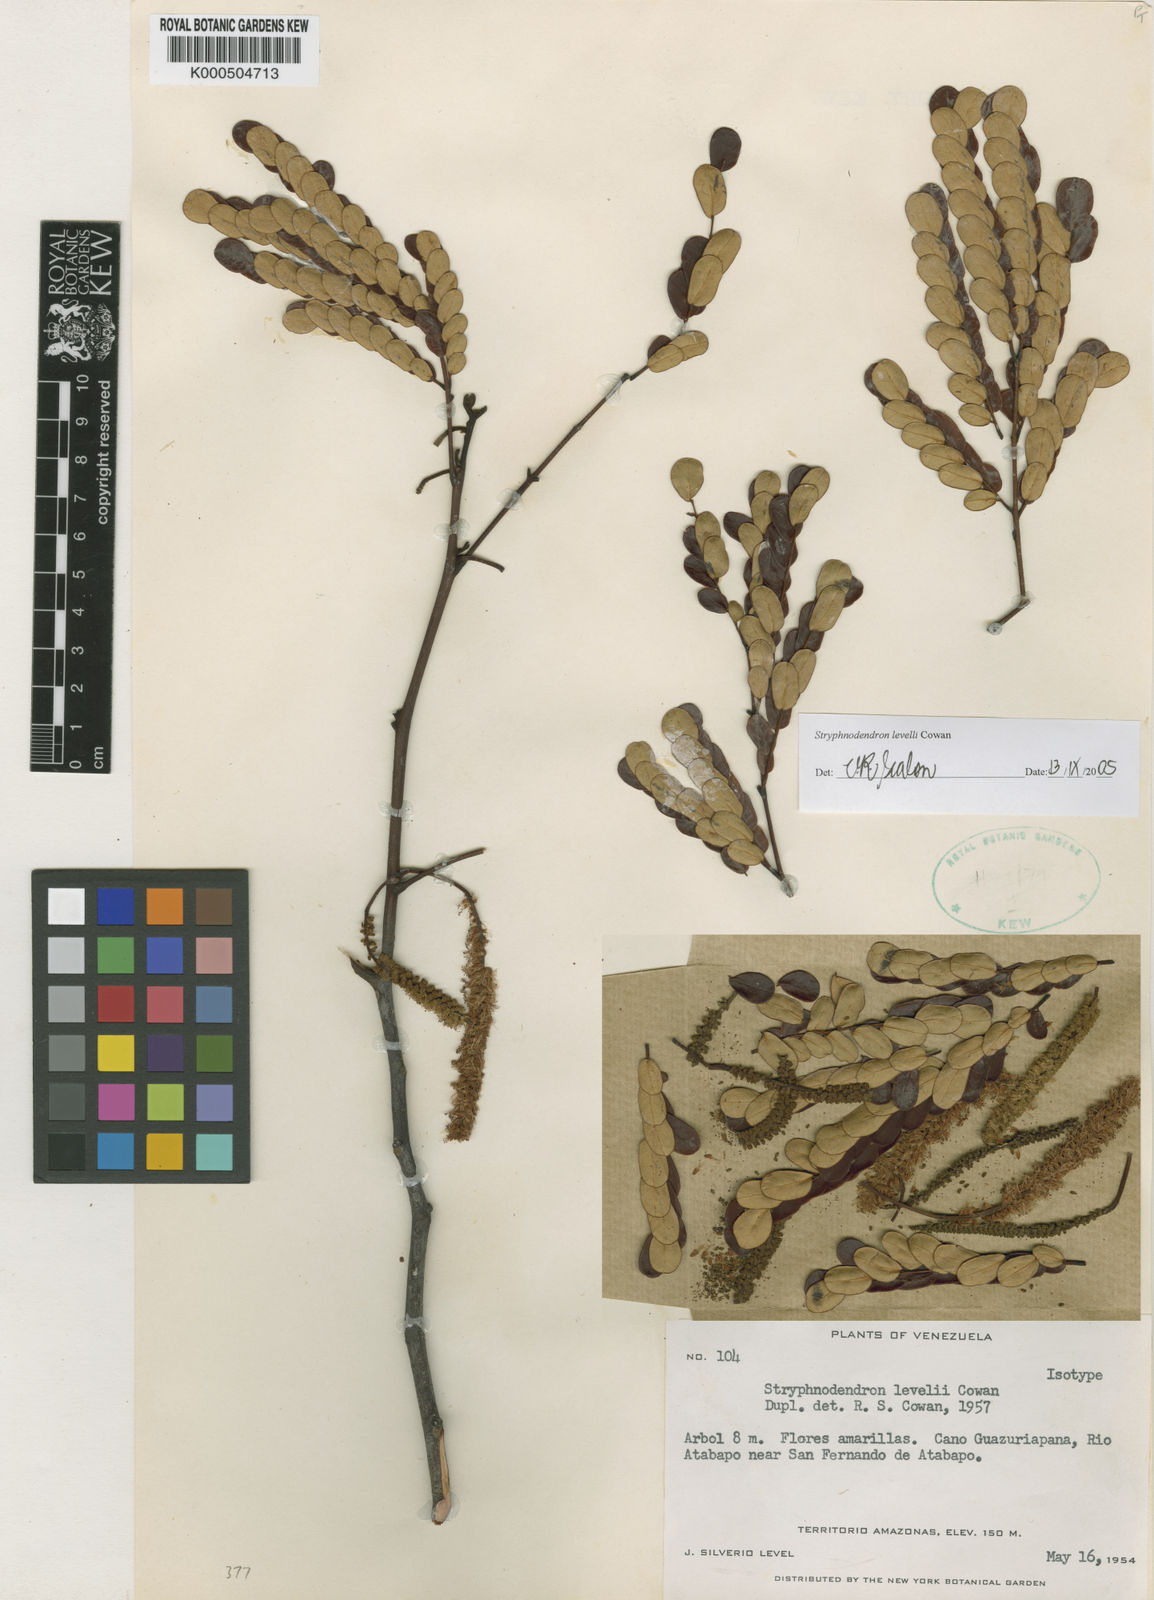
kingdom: Plantae
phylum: Tracheophyta
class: Magnoliopsida
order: Fabales
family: Fabaceae
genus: Stryphnodendron
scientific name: Stryphnodendron levelii
